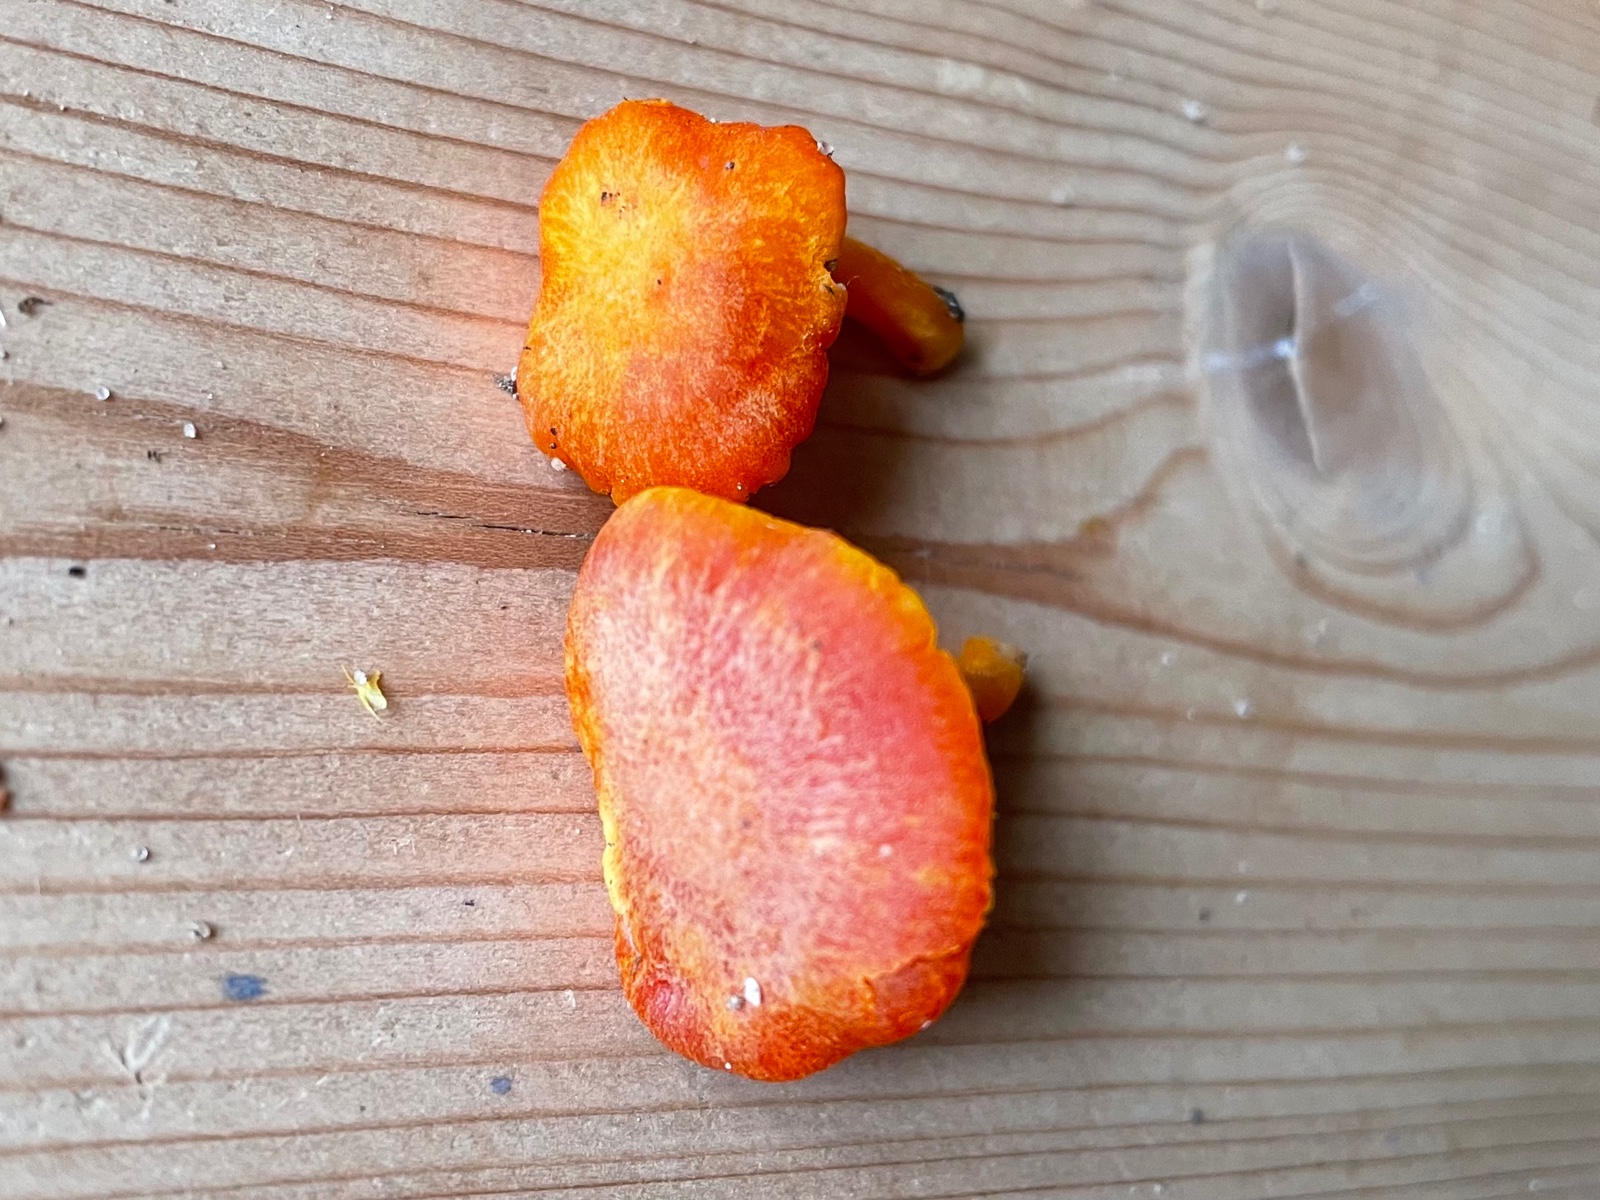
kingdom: Fungi
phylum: Basidiomycota
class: Agaricomycetes
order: Agaricales
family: Hygrophoraceae
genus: Hygrocybe
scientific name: Hygrocybe miniata
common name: mønje-vokshat
